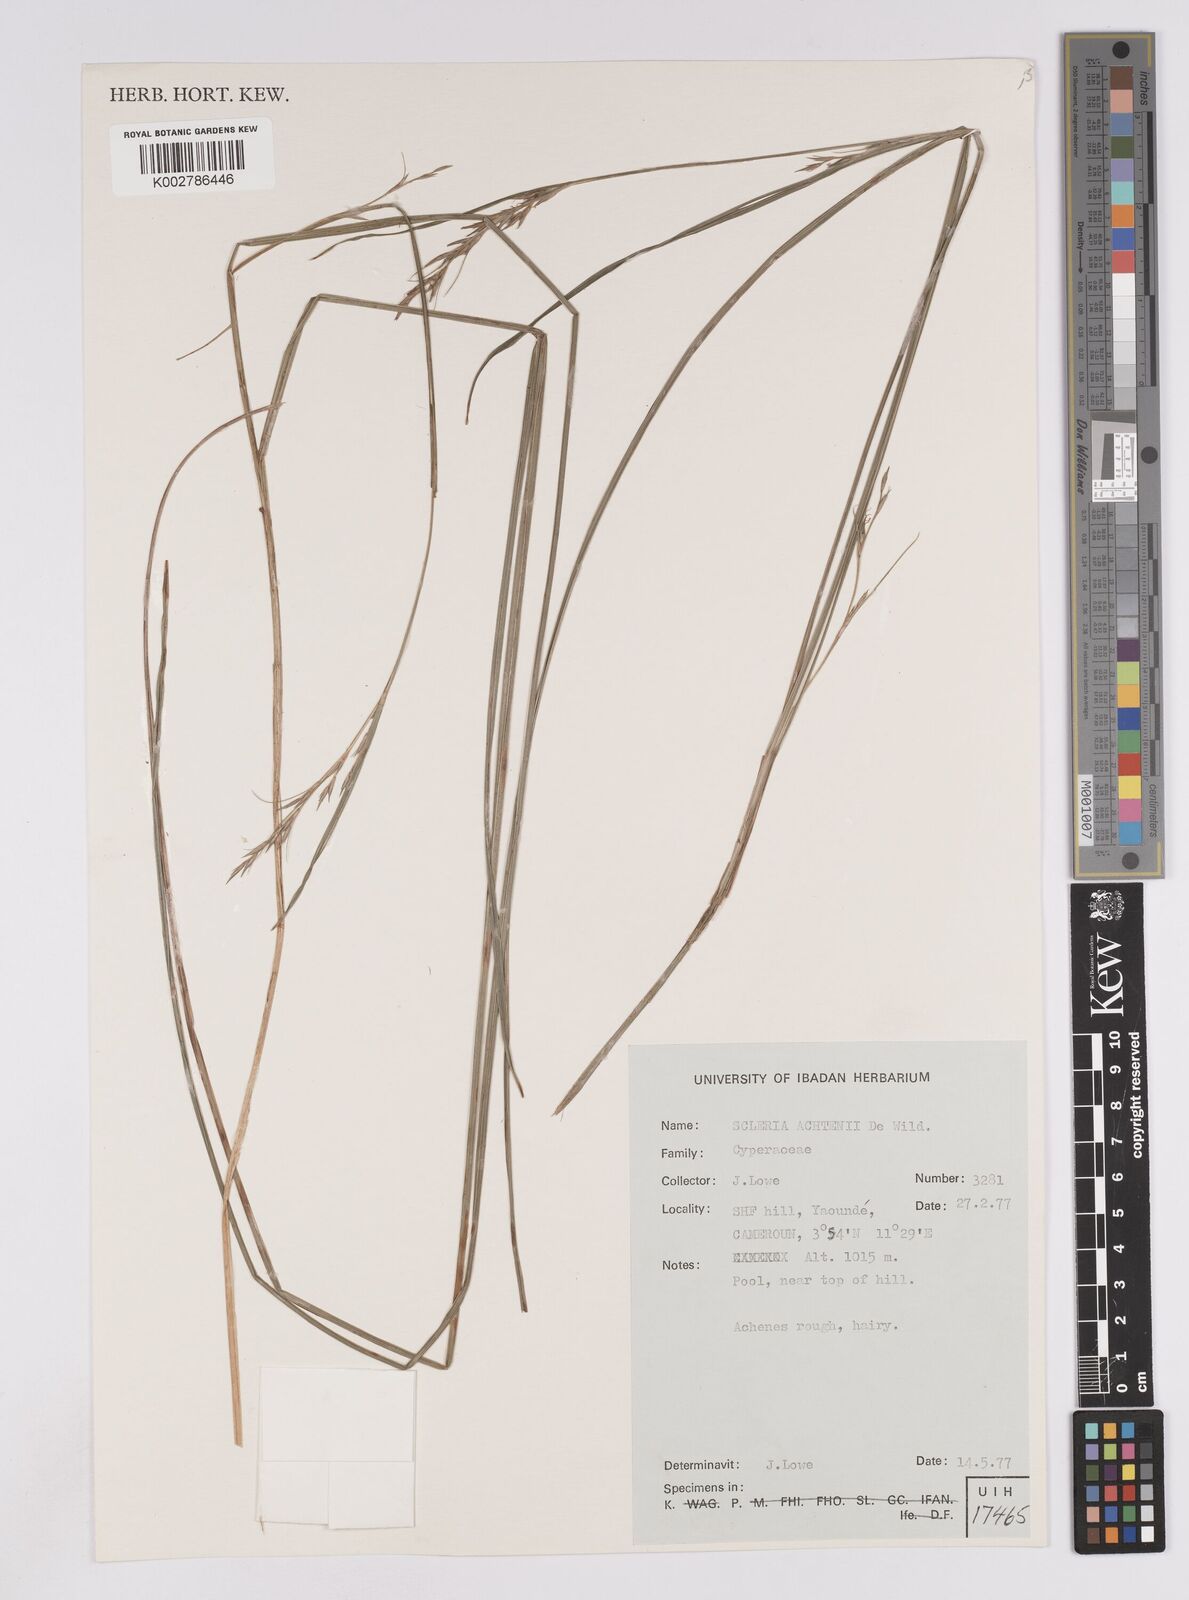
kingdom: Plantae
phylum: Tracheophyta
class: Liliopsida
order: Poales
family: Cyperaceae
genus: Scleria
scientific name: Scleria achtenii
